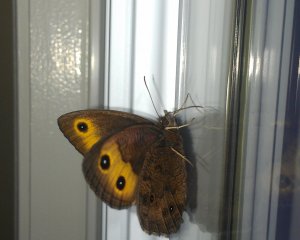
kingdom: Animalia
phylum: Arthropoda
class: Insecta
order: Lepidoptera
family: Nymphalidae
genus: Cercyonis
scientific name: Cercyonis pegala
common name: Common Wood-Nymph
